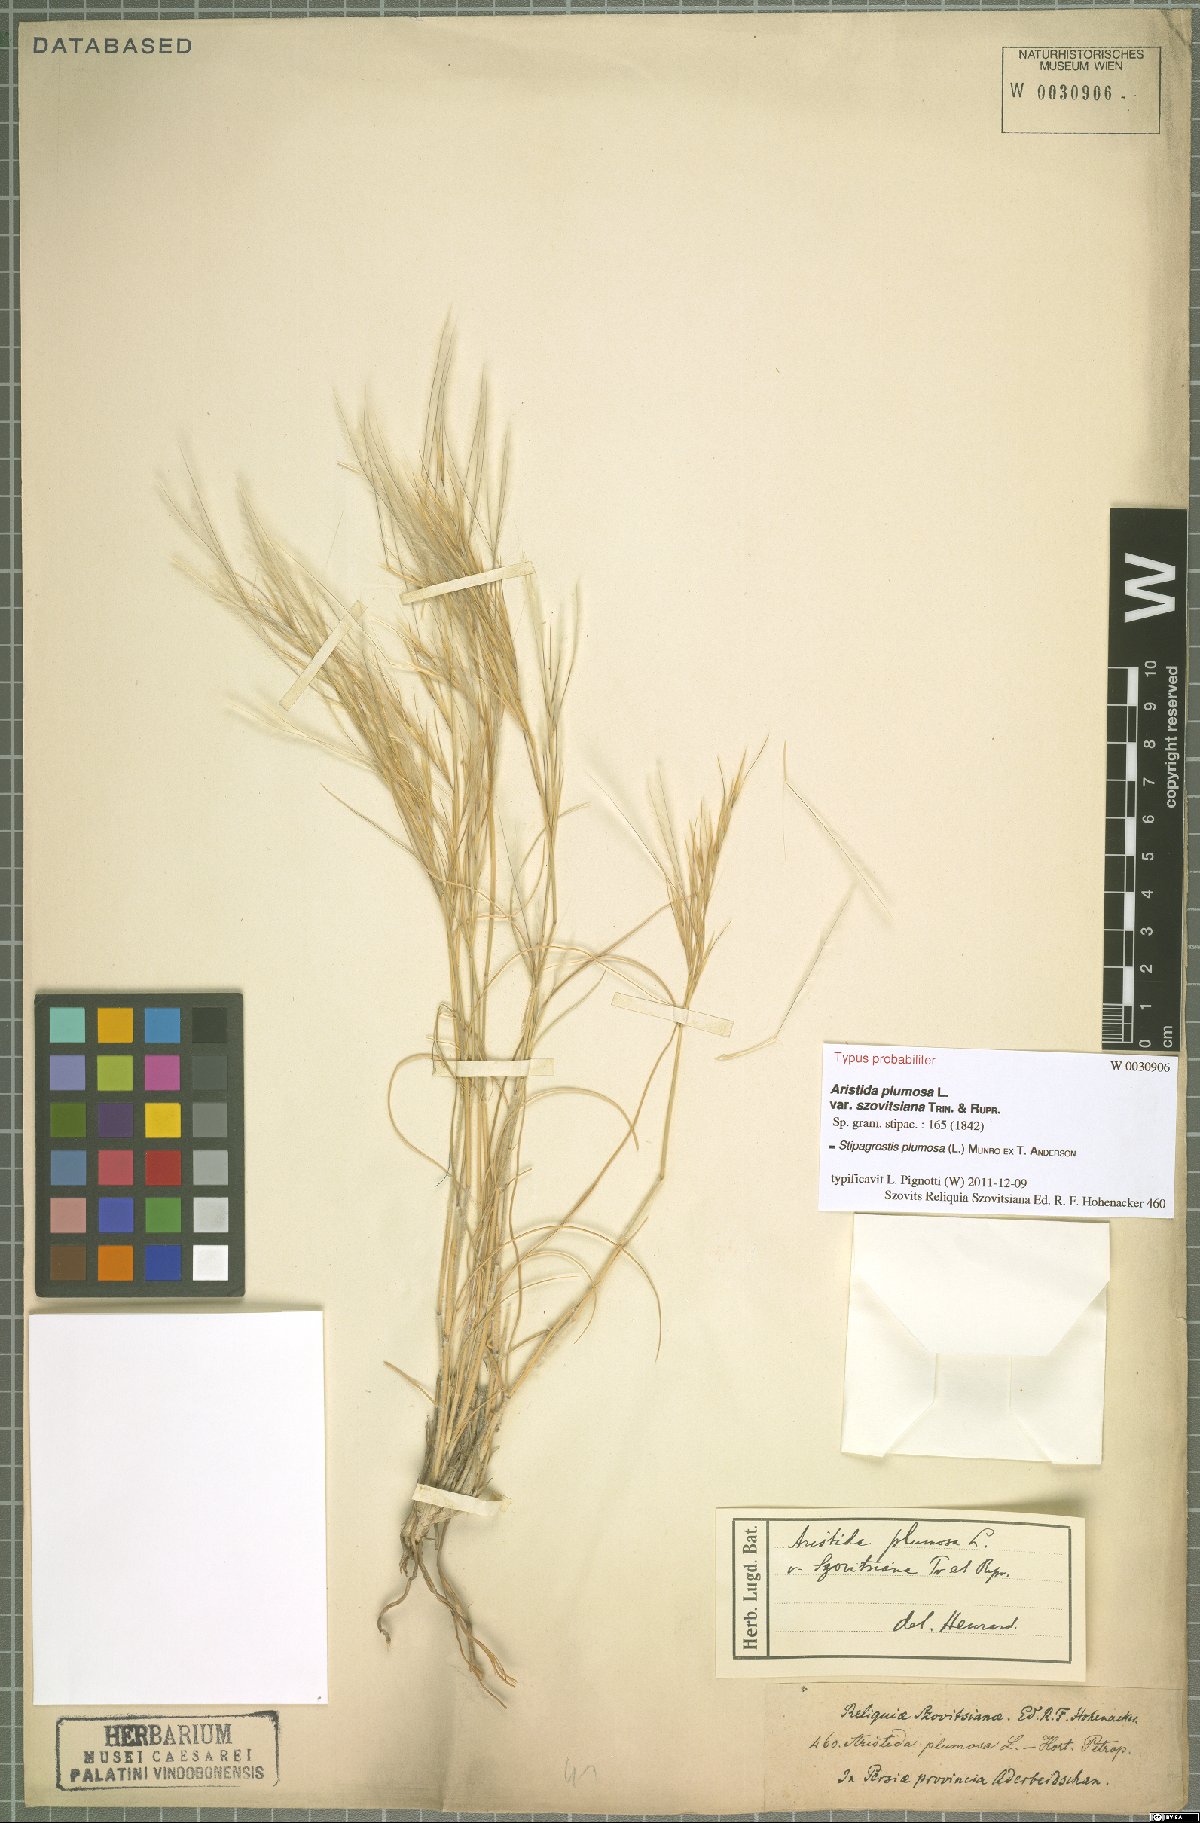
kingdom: Plantae
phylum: Tracheophyta
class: Liliopsida
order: Poales
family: Poaceae
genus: Stipagrostis
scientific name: Stipagrostis plumosa
